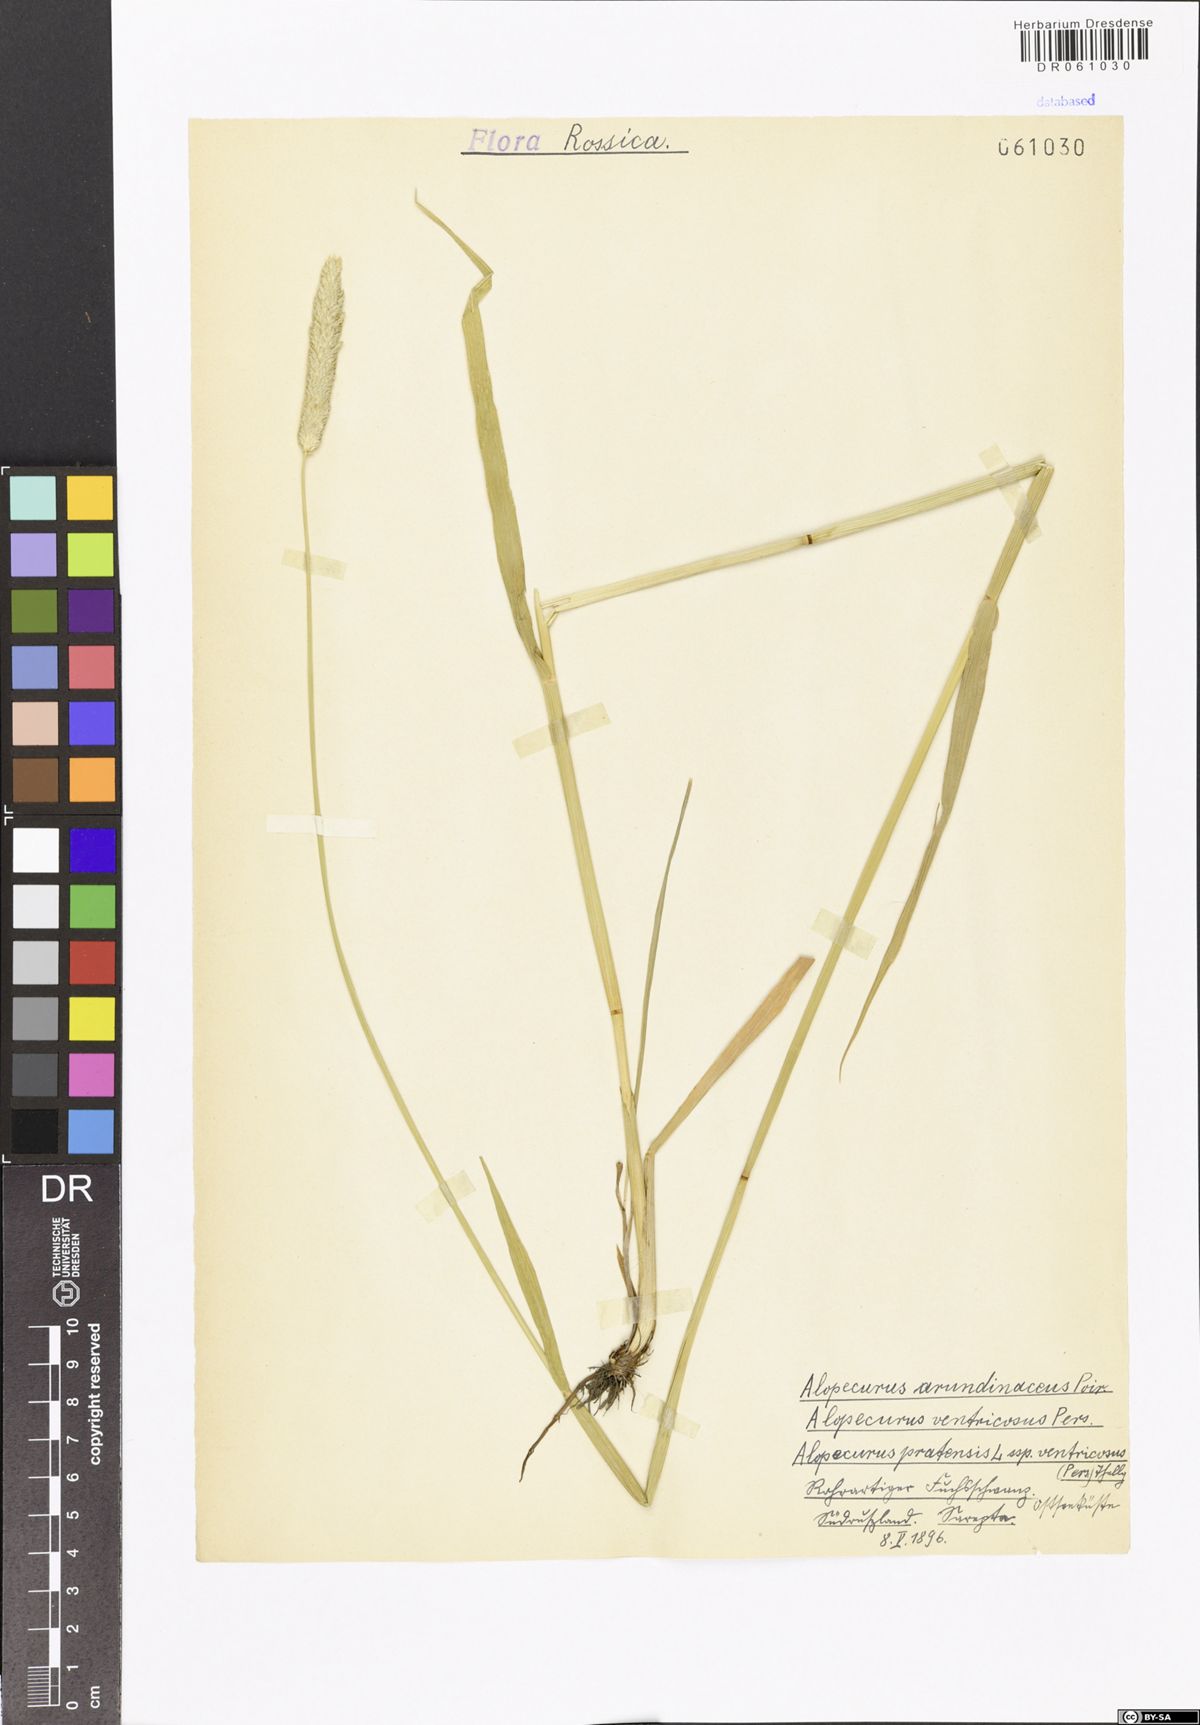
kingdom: Plantae
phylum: Tracheophyta
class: Liliopsida
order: Poales
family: Poaceae
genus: Alopecurus
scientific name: Alopecurus arundinaceus
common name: Creeping meadow foxtail
